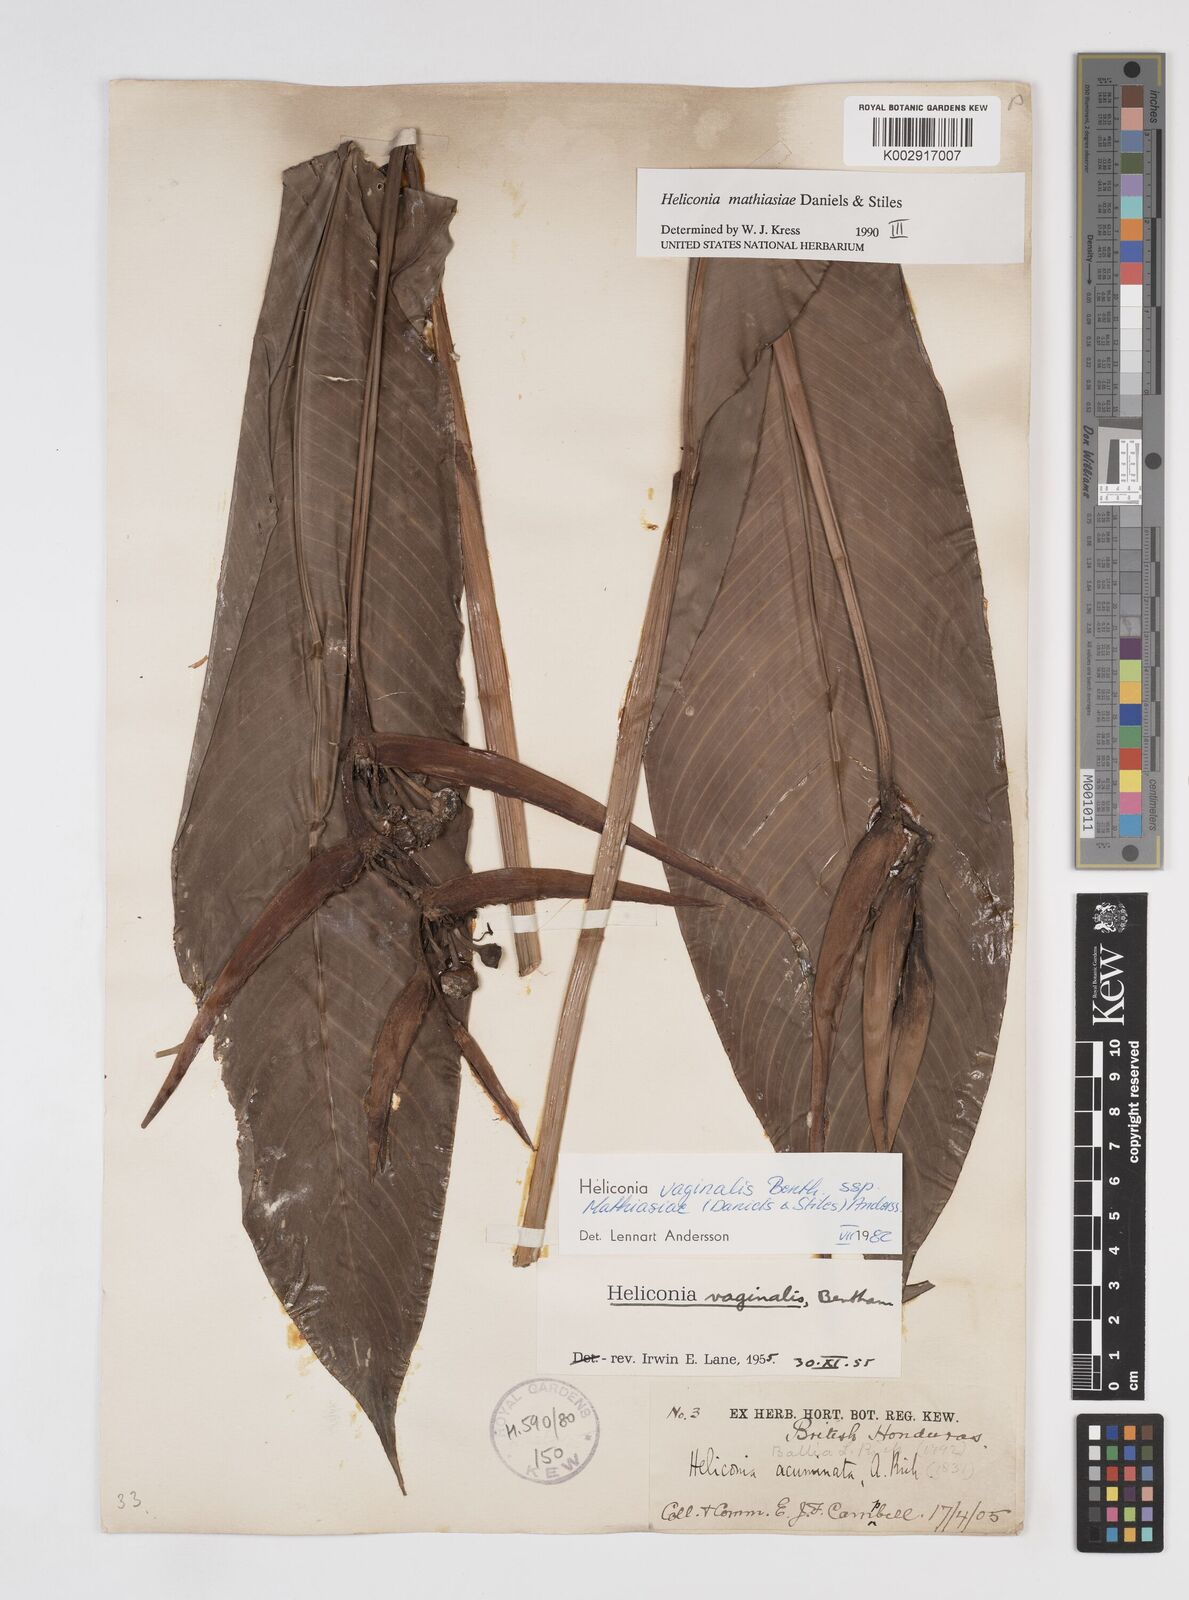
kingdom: Plantae
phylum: Tracheophyta
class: Liliopsida
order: Zingiberales
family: Heliconiaceae
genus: Heliconia
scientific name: Heliconia mathiasiae
